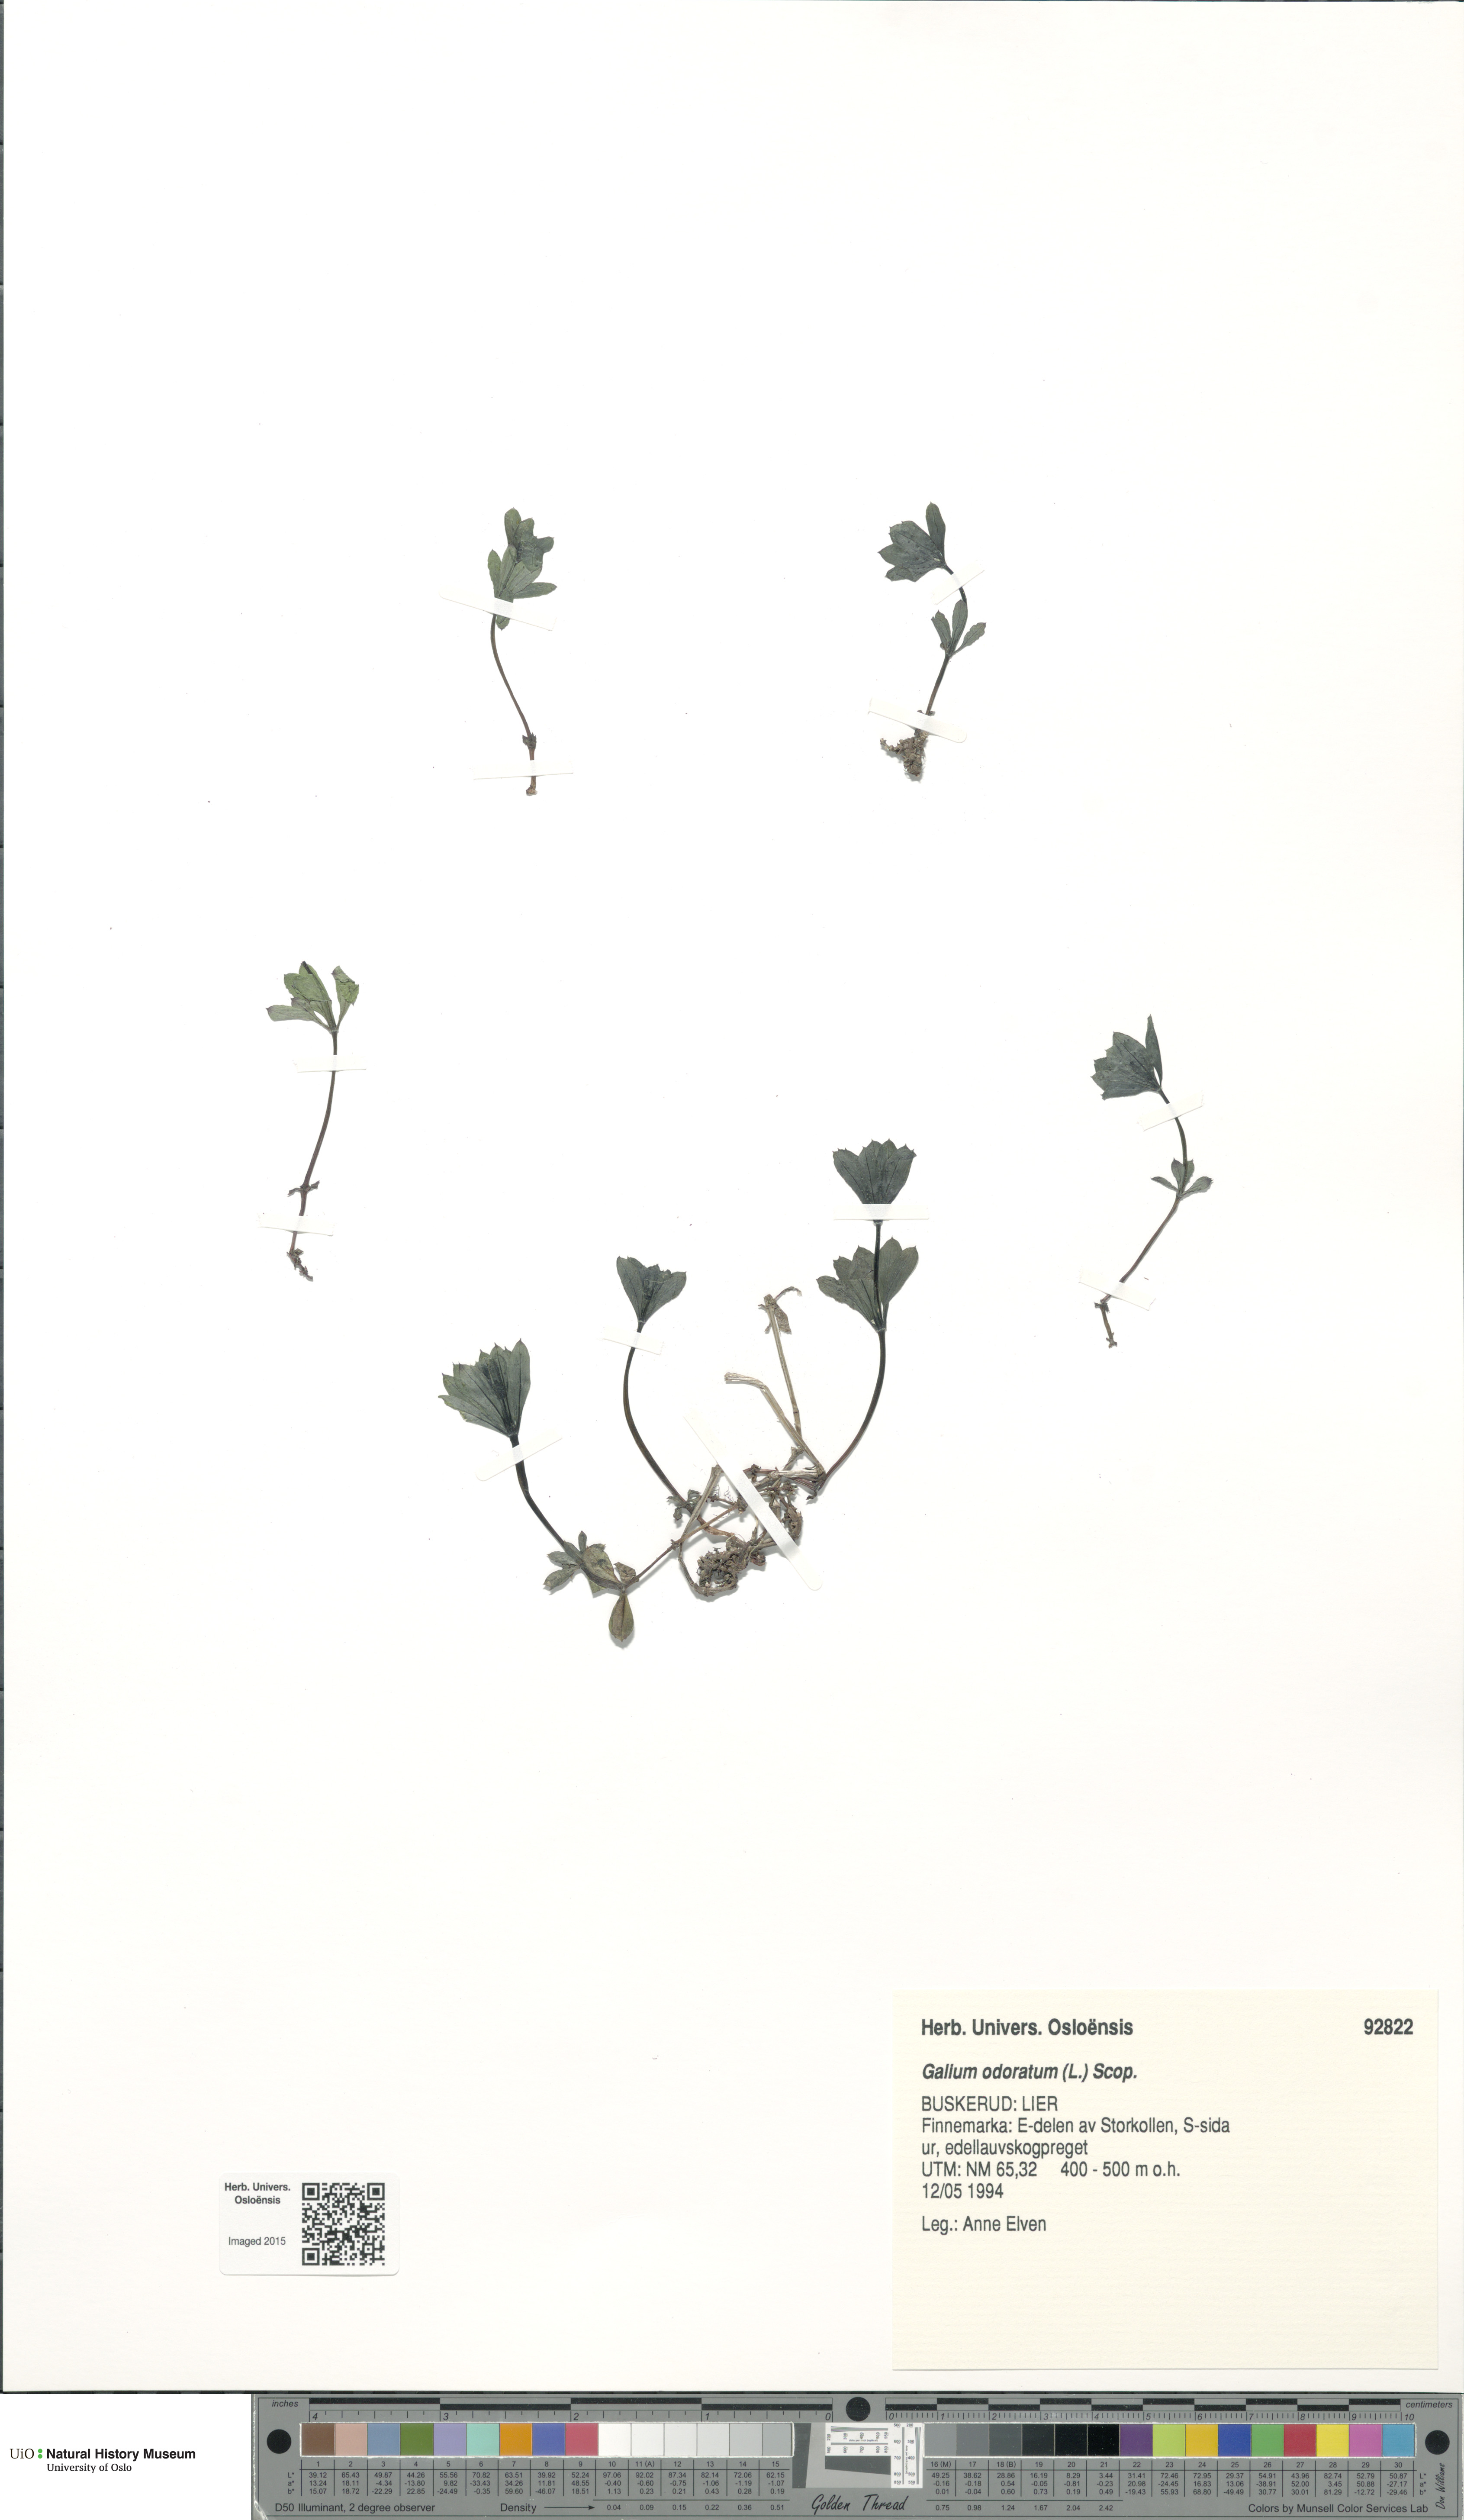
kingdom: Plantae
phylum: Tracheophyta
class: Magnoliopsida
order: Gentianales
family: Rubiaceae
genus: Galium
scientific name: Galium odoratum
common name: Sweet woodruff
